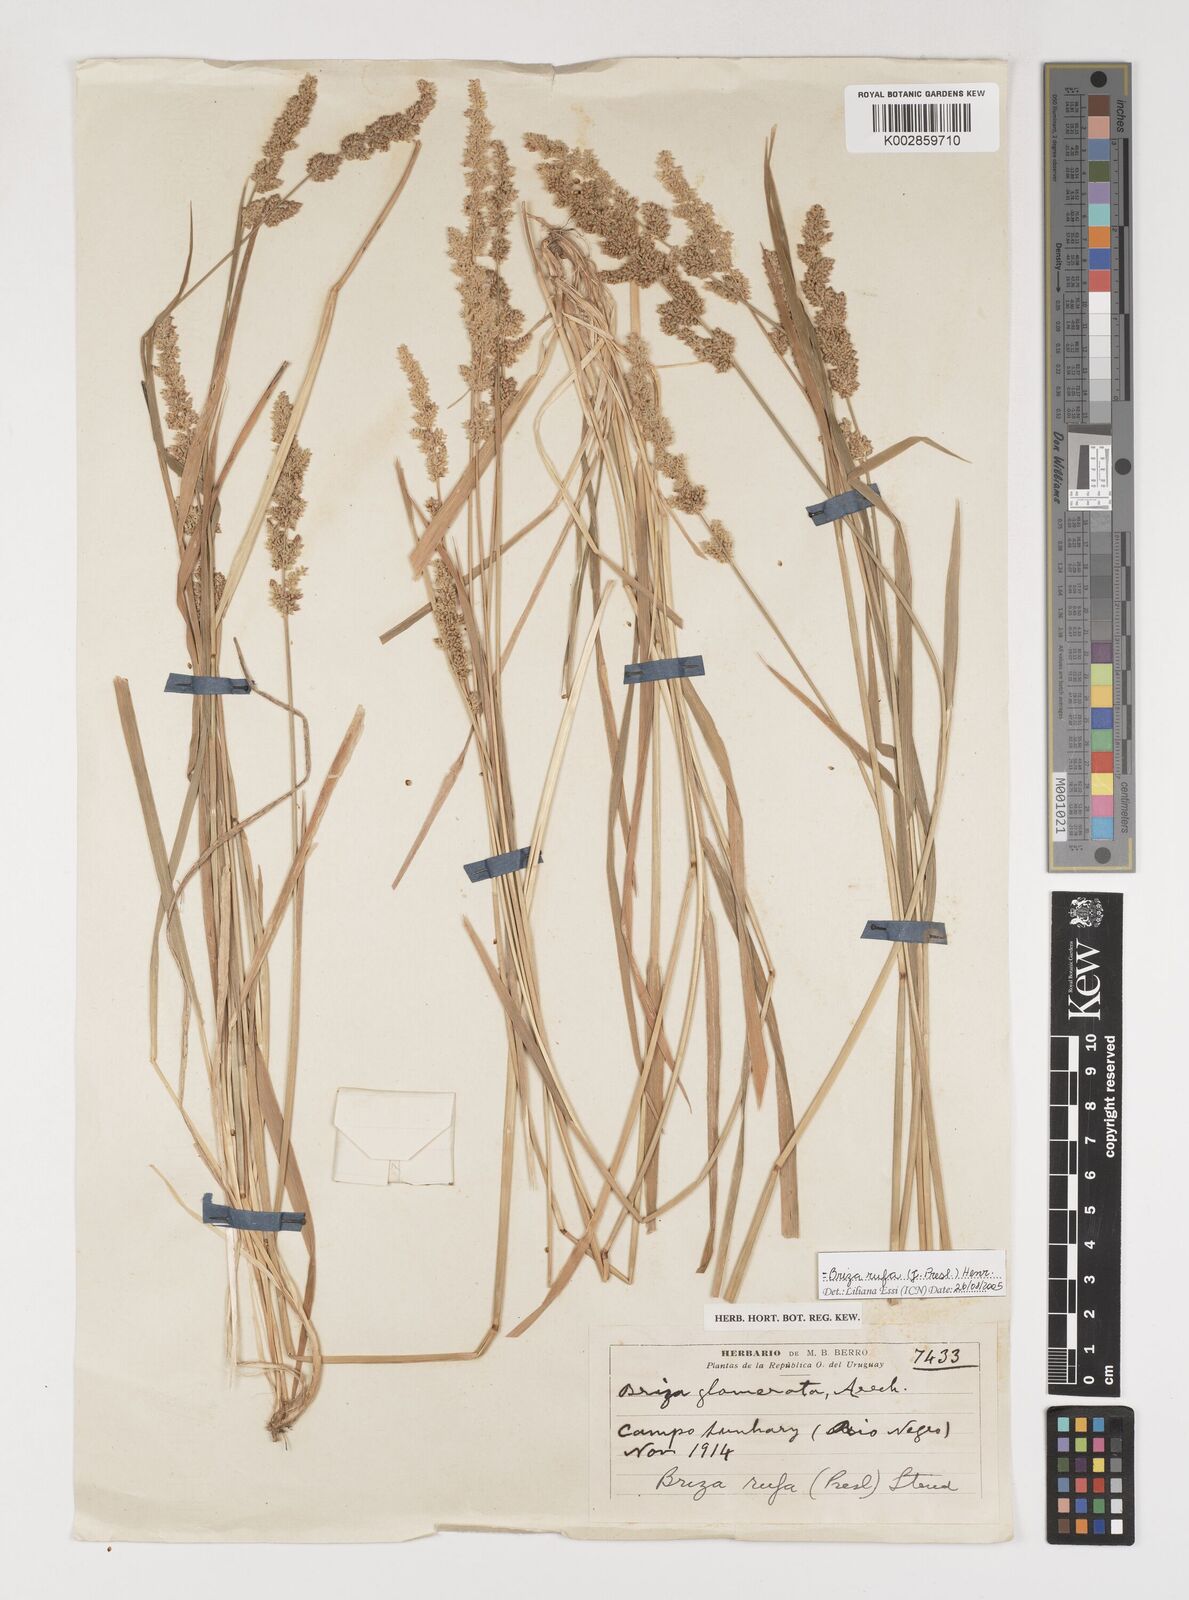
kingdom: Plantae
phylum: Tracheophyta
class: Liliopsida
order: Poales
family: Poaceae
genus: Lombardochloa
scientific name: Lombardochloa rufa
